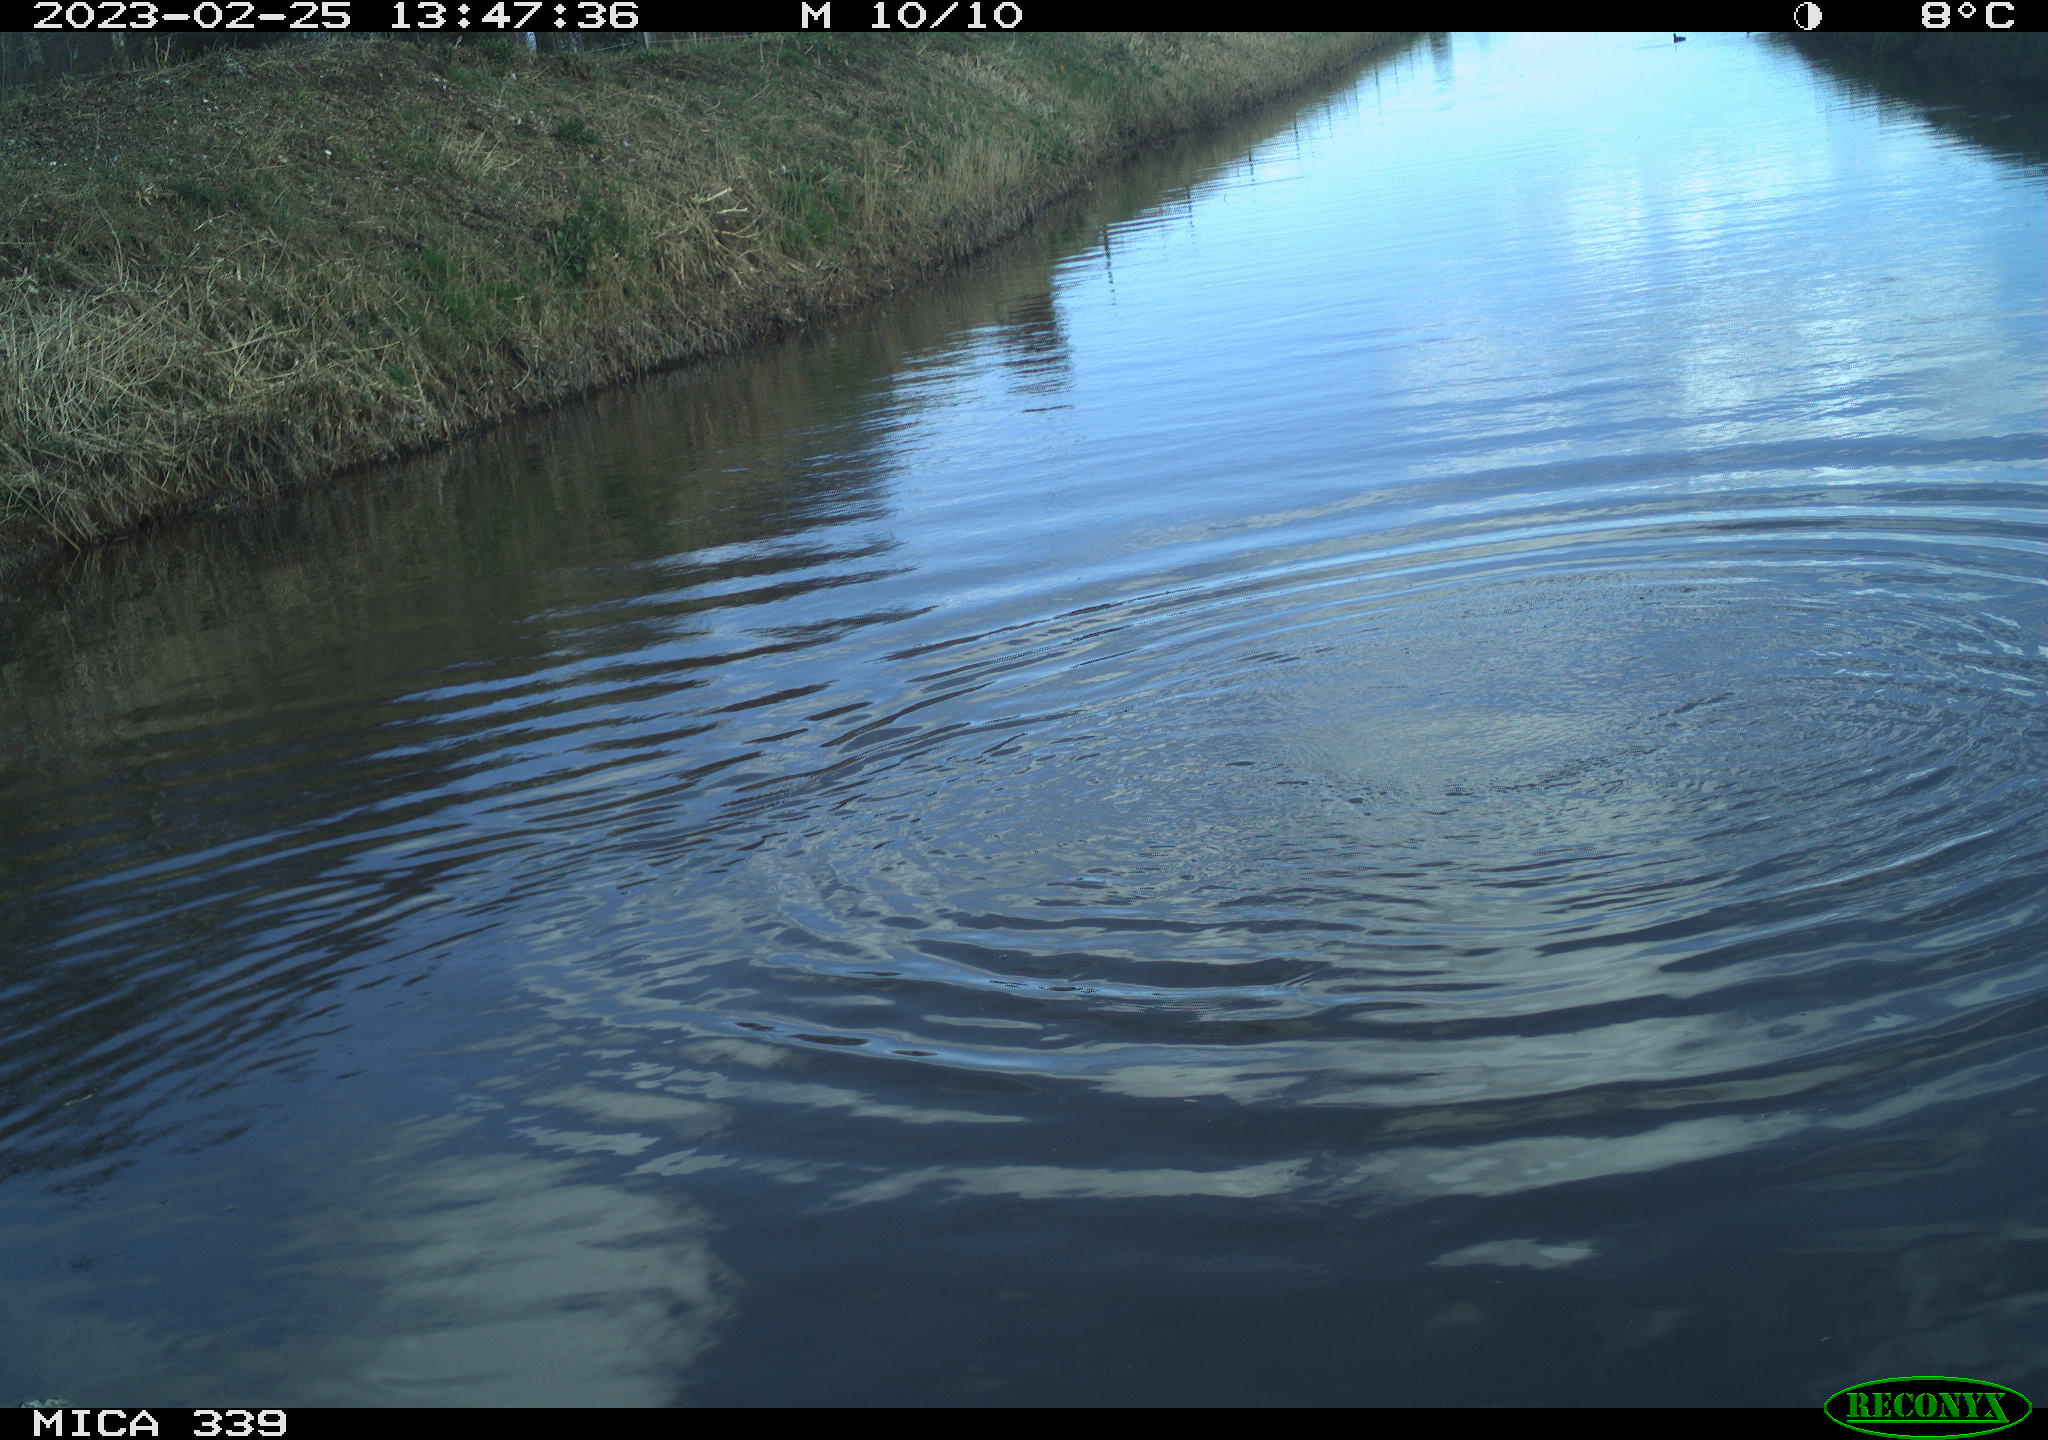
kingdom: Animalia
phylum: Chordata
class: Aves
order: Suliformes
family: Phalacrocoracidae
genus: Phalacrocorax
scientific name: Phalacrocorax carbo
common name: Great cormorant
